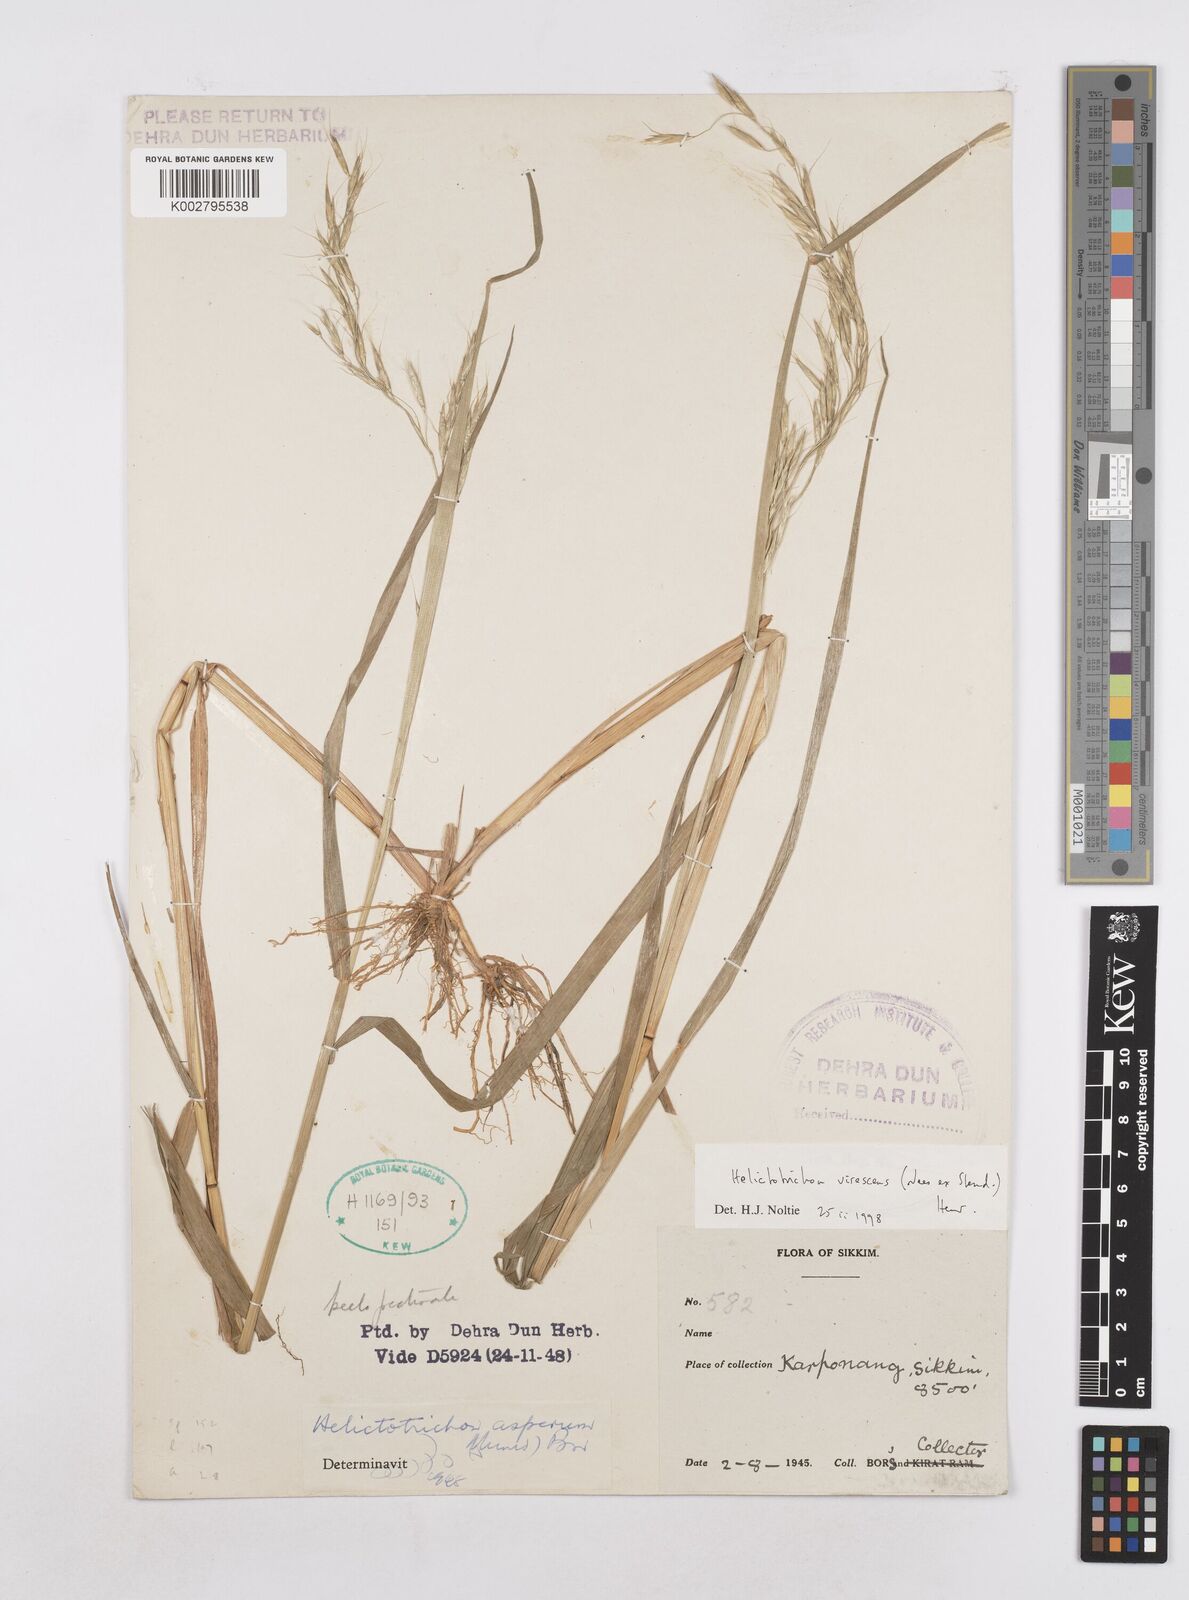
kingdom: Plantae
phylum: Tracheophyta
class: Liliopsida
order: Poales
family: Poaceae
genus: Trisetopsis
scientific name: Trisetopsis junghuhnii
